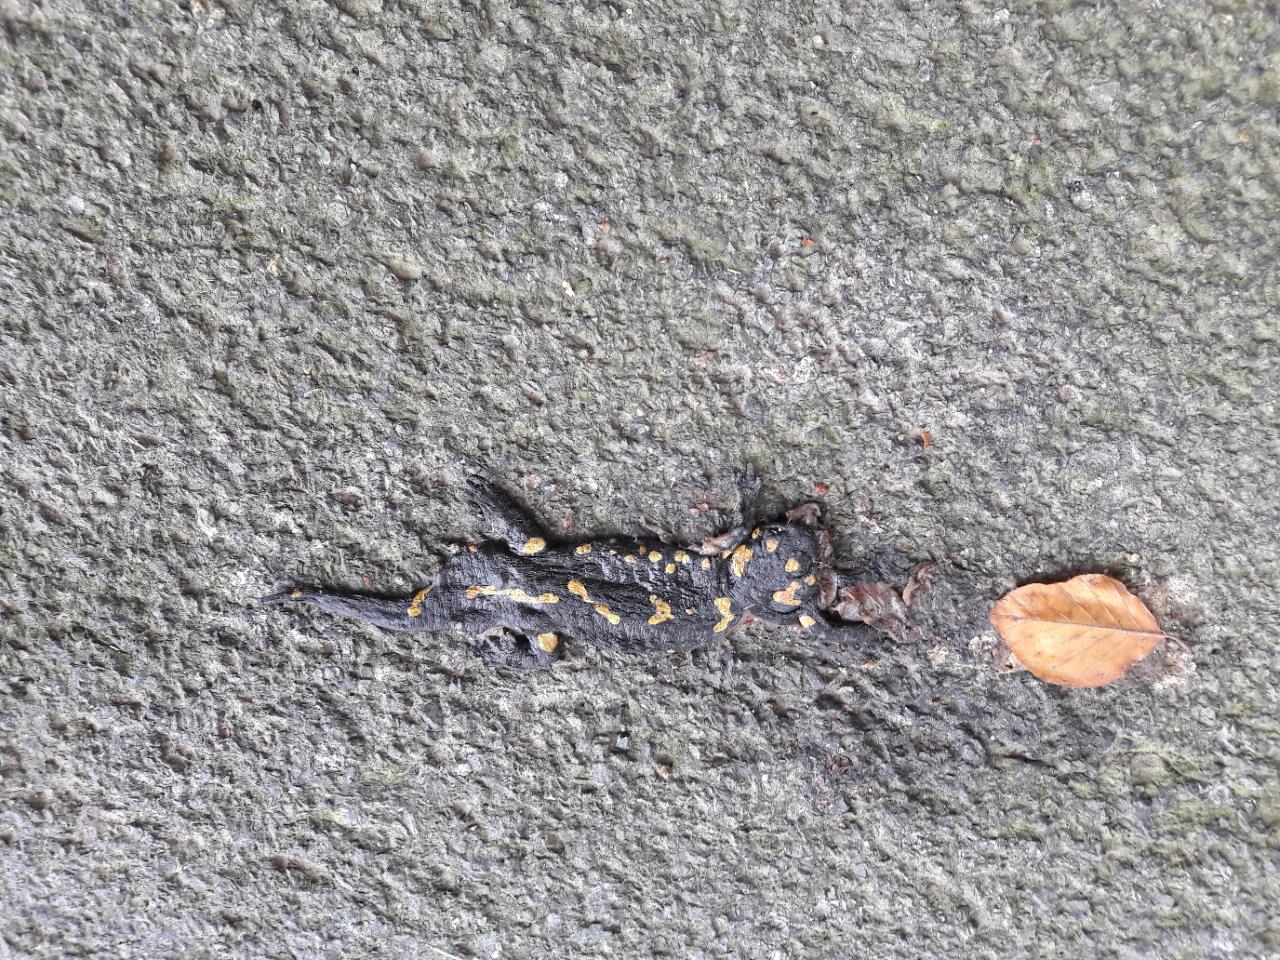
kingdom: Animalia
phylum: Chordata
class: Amphibia
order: Caudata
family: Salamandridae
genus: Salamandra
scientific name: Salamandra salamandra
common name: Fire salamander
